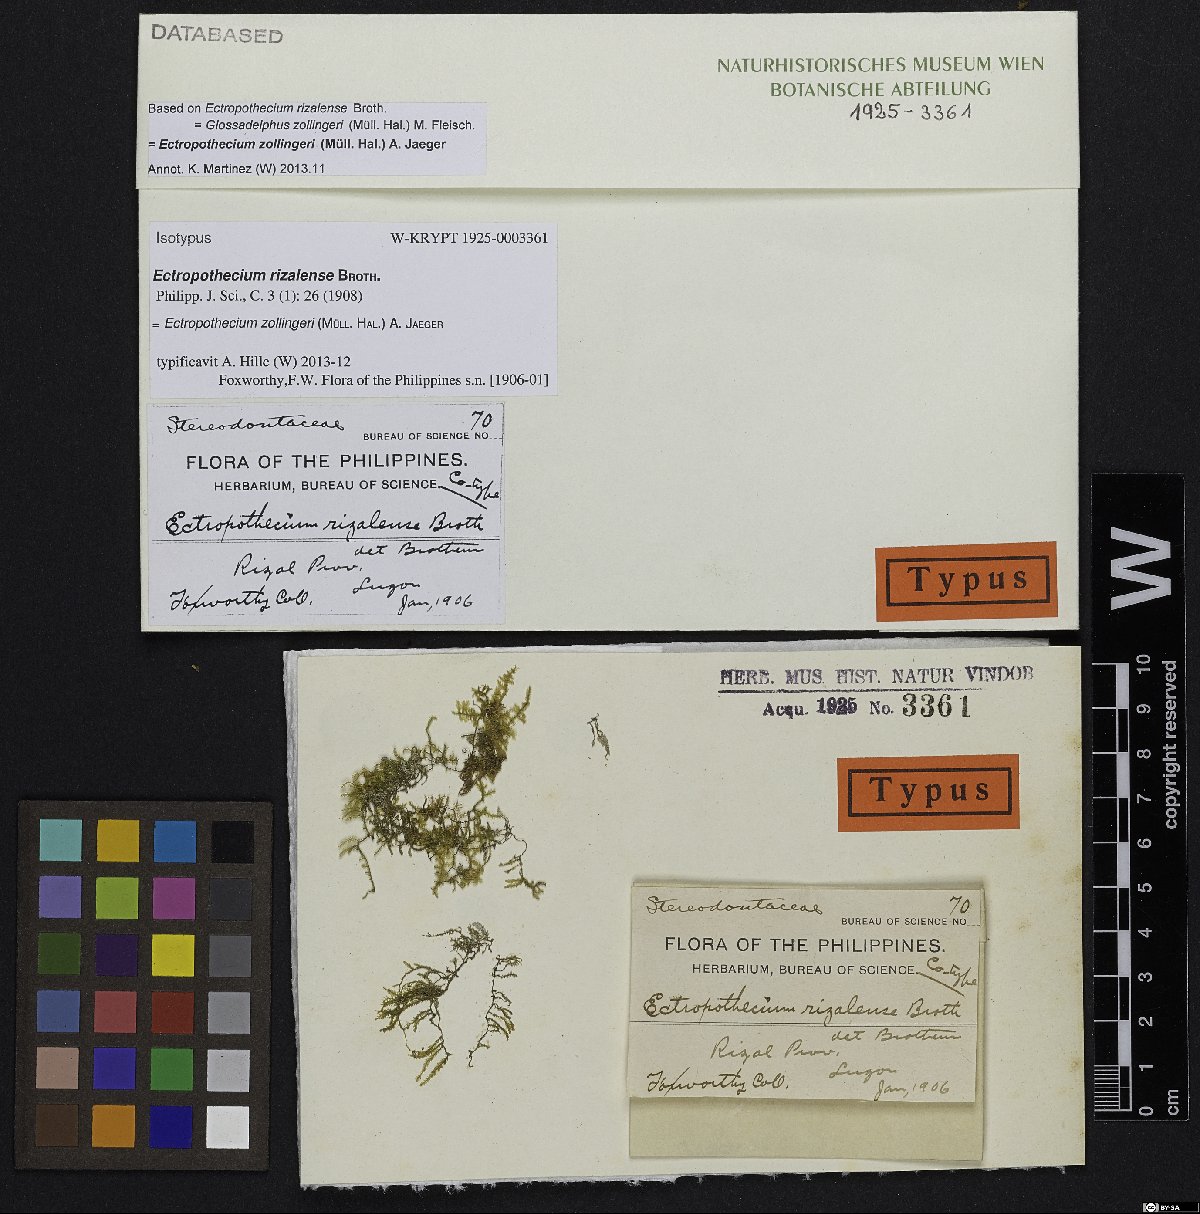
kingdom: Plantae
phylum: Bryophyta
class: Bryopsida
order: Hypnales
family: Hypnaceae
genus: Ectropothecium
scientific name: Ectropothecium zollingeri
